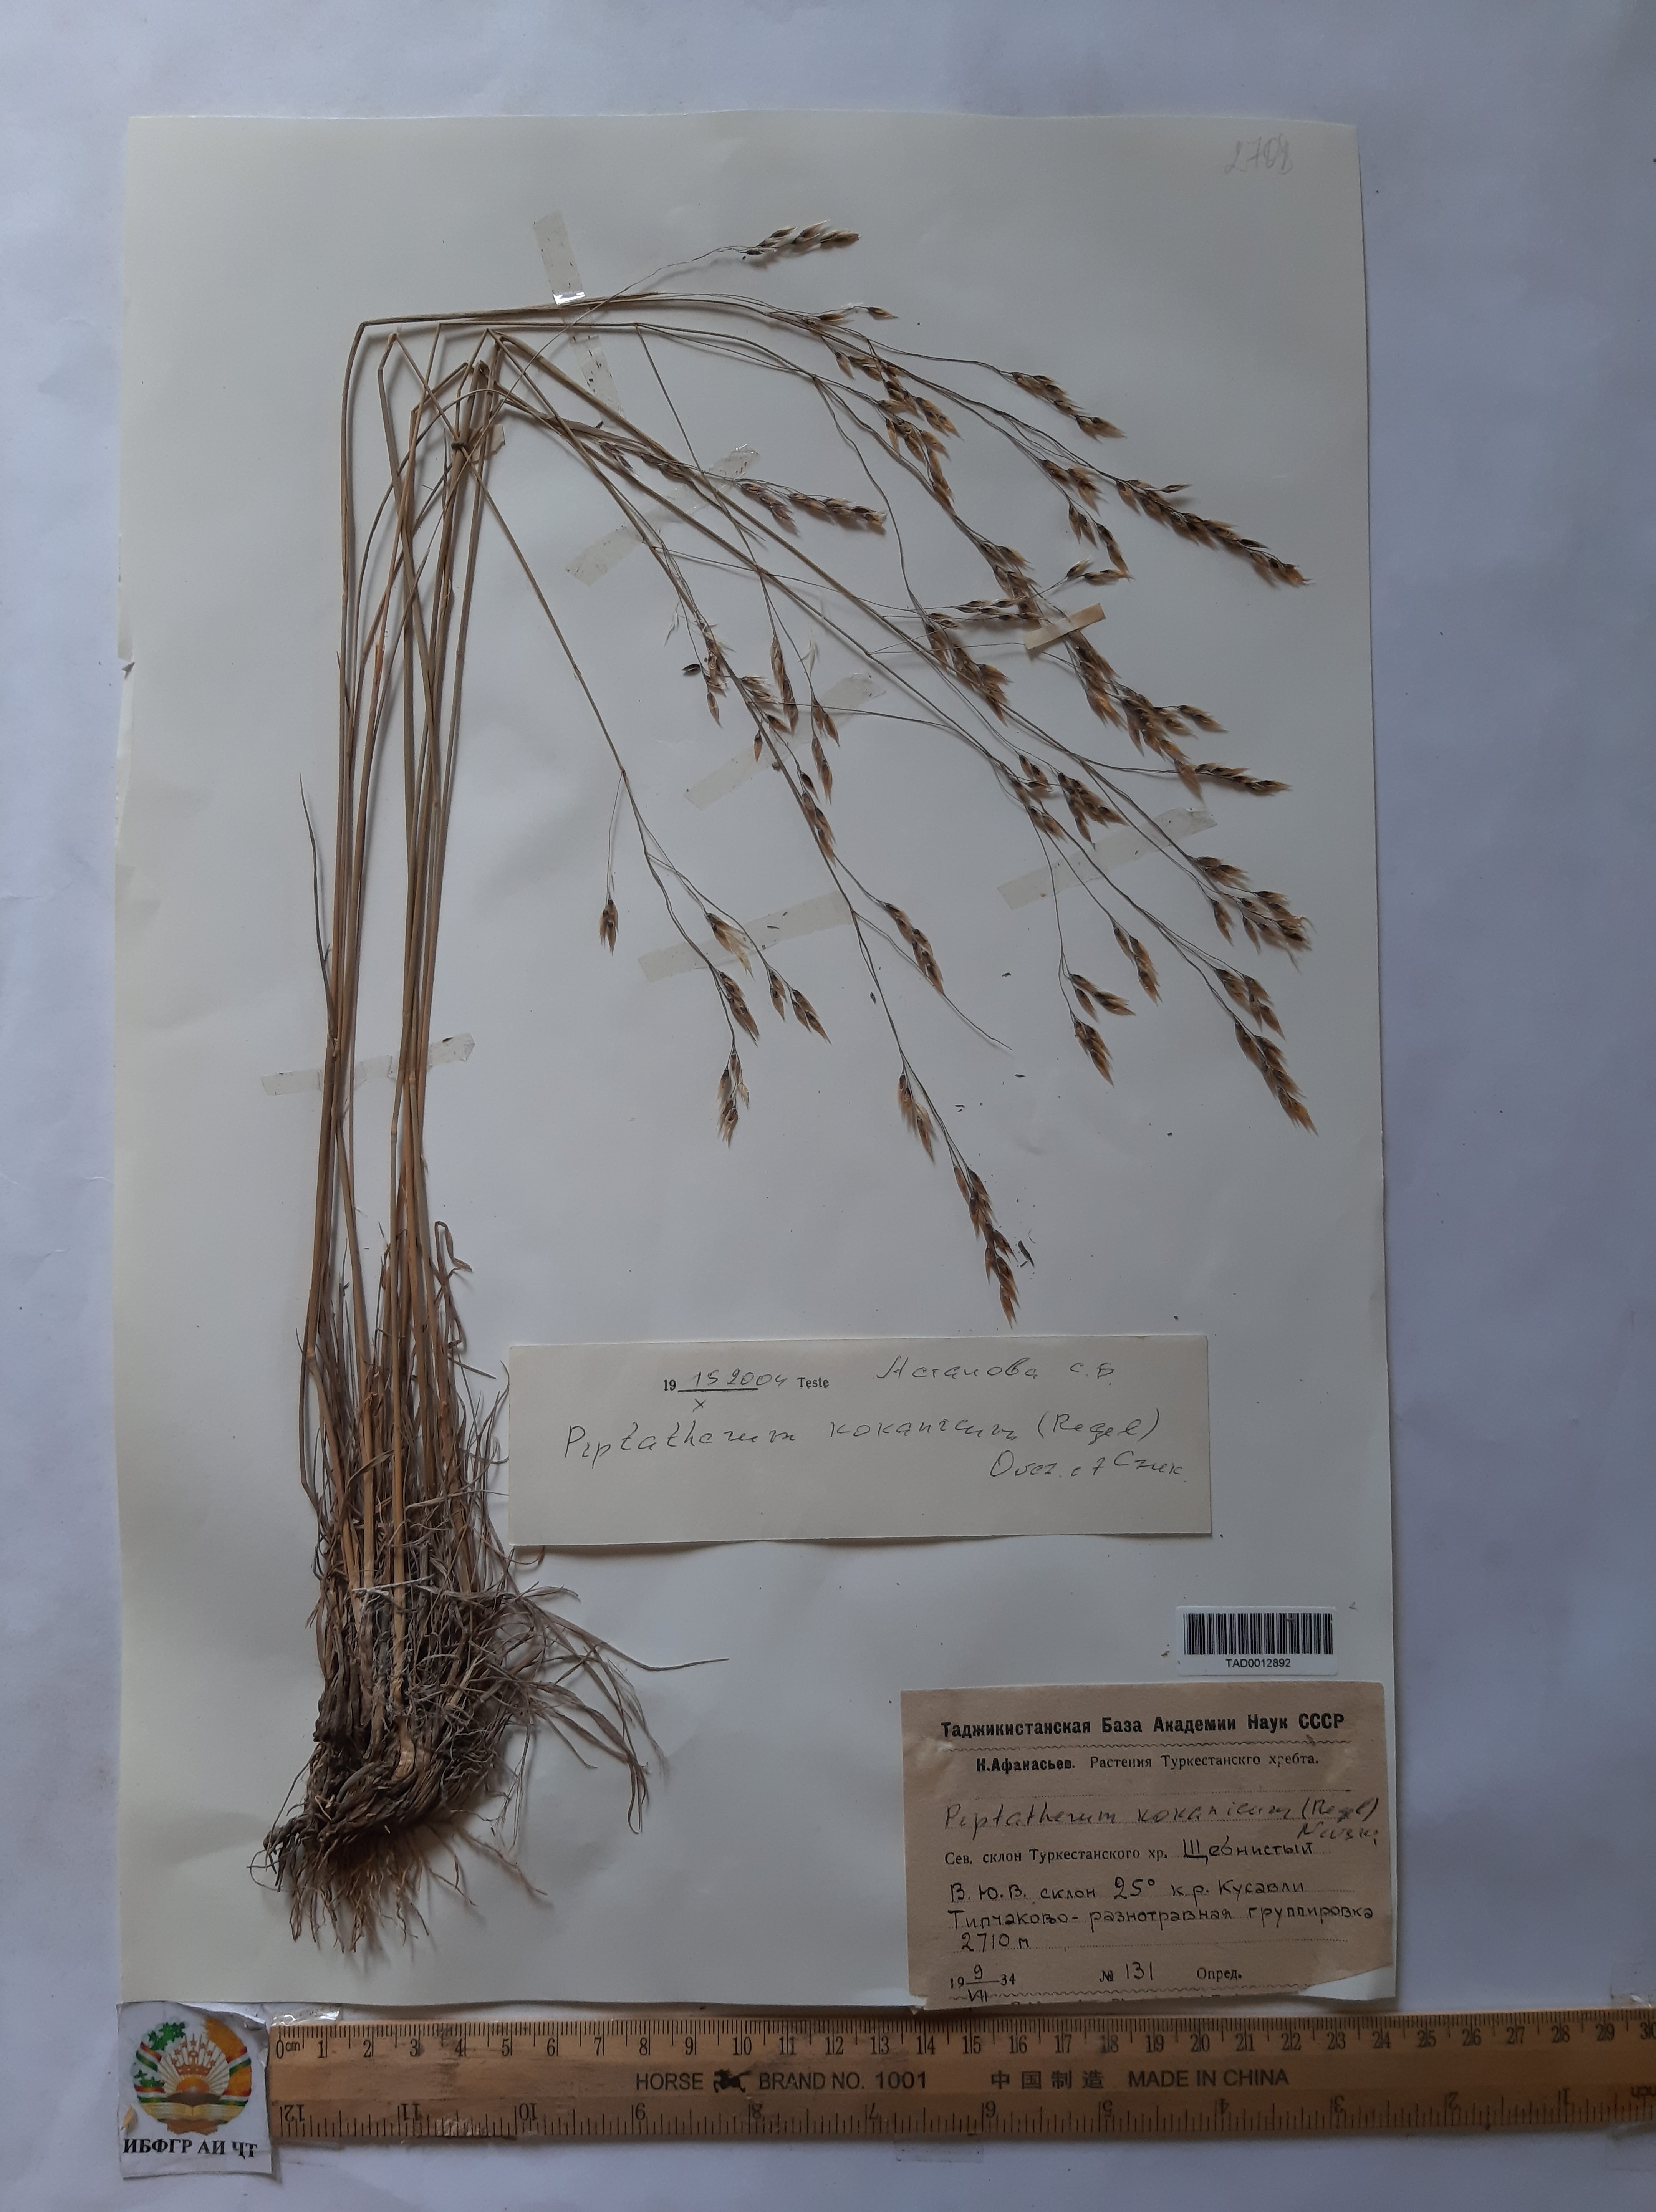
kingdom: Plantae
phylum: Tracheophyta
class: Liliopsida
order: Poales
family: Poaceae
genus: Piptatherum
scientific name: Piptatherum songaricum
